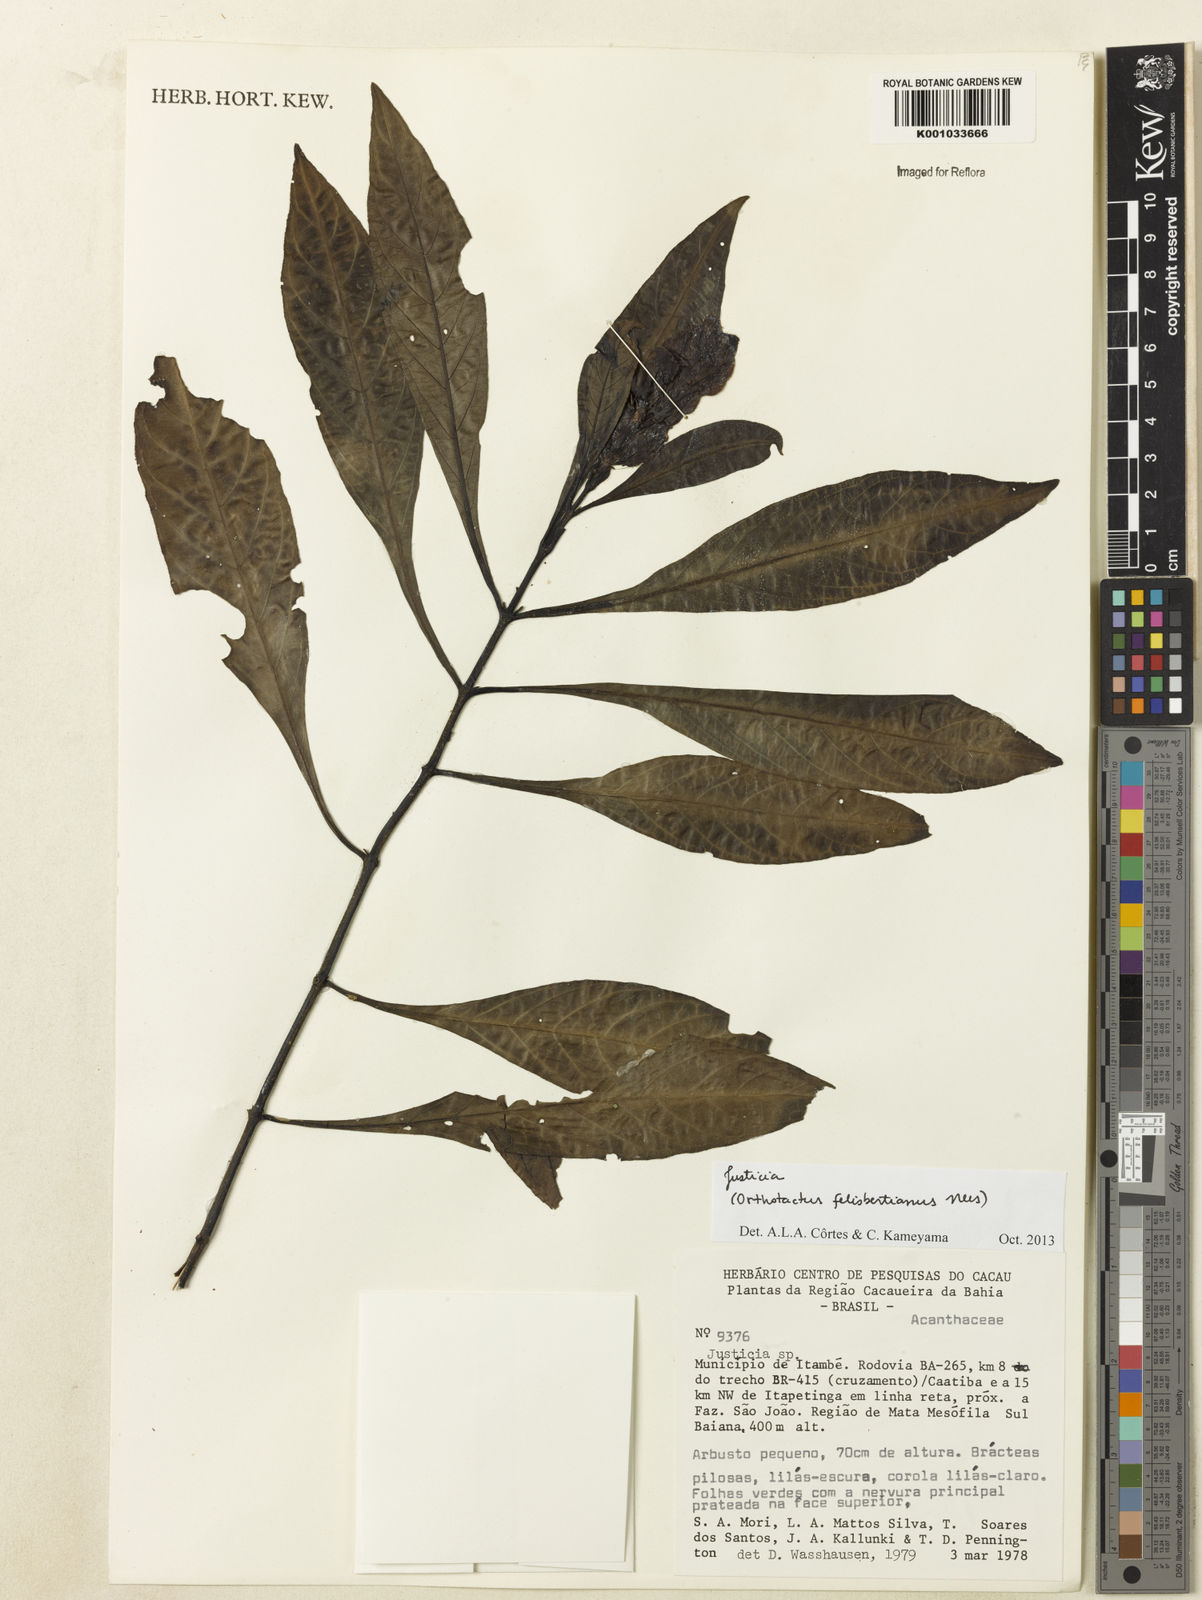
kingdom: Plantae
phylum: Tracheophyta
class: Magnoliopsida
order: Lamiales
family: Acanthaceae
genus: Justicia
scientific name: Justicia
